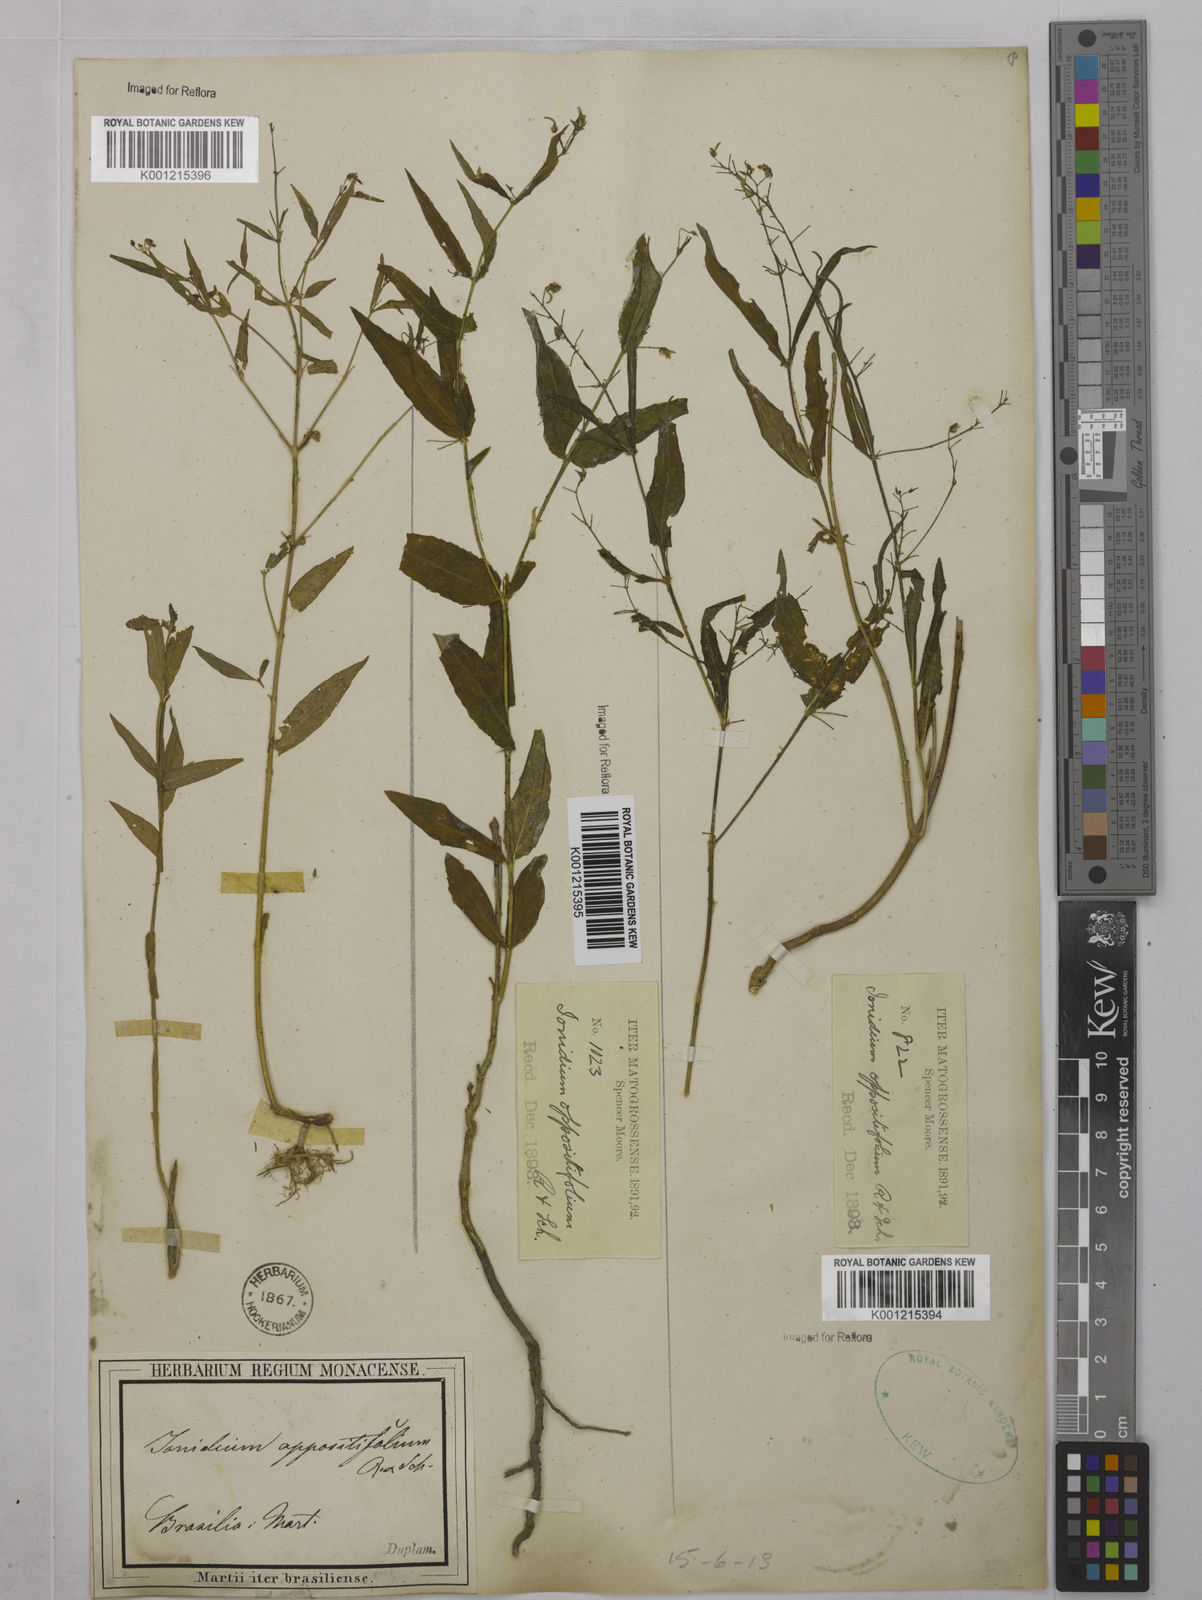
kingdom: Plantae
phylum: Tracheophyta
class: Magnoliopsida
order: Malpighiales
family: Violaceae
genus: Pombalia
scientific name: Pombalia oppositifolia
